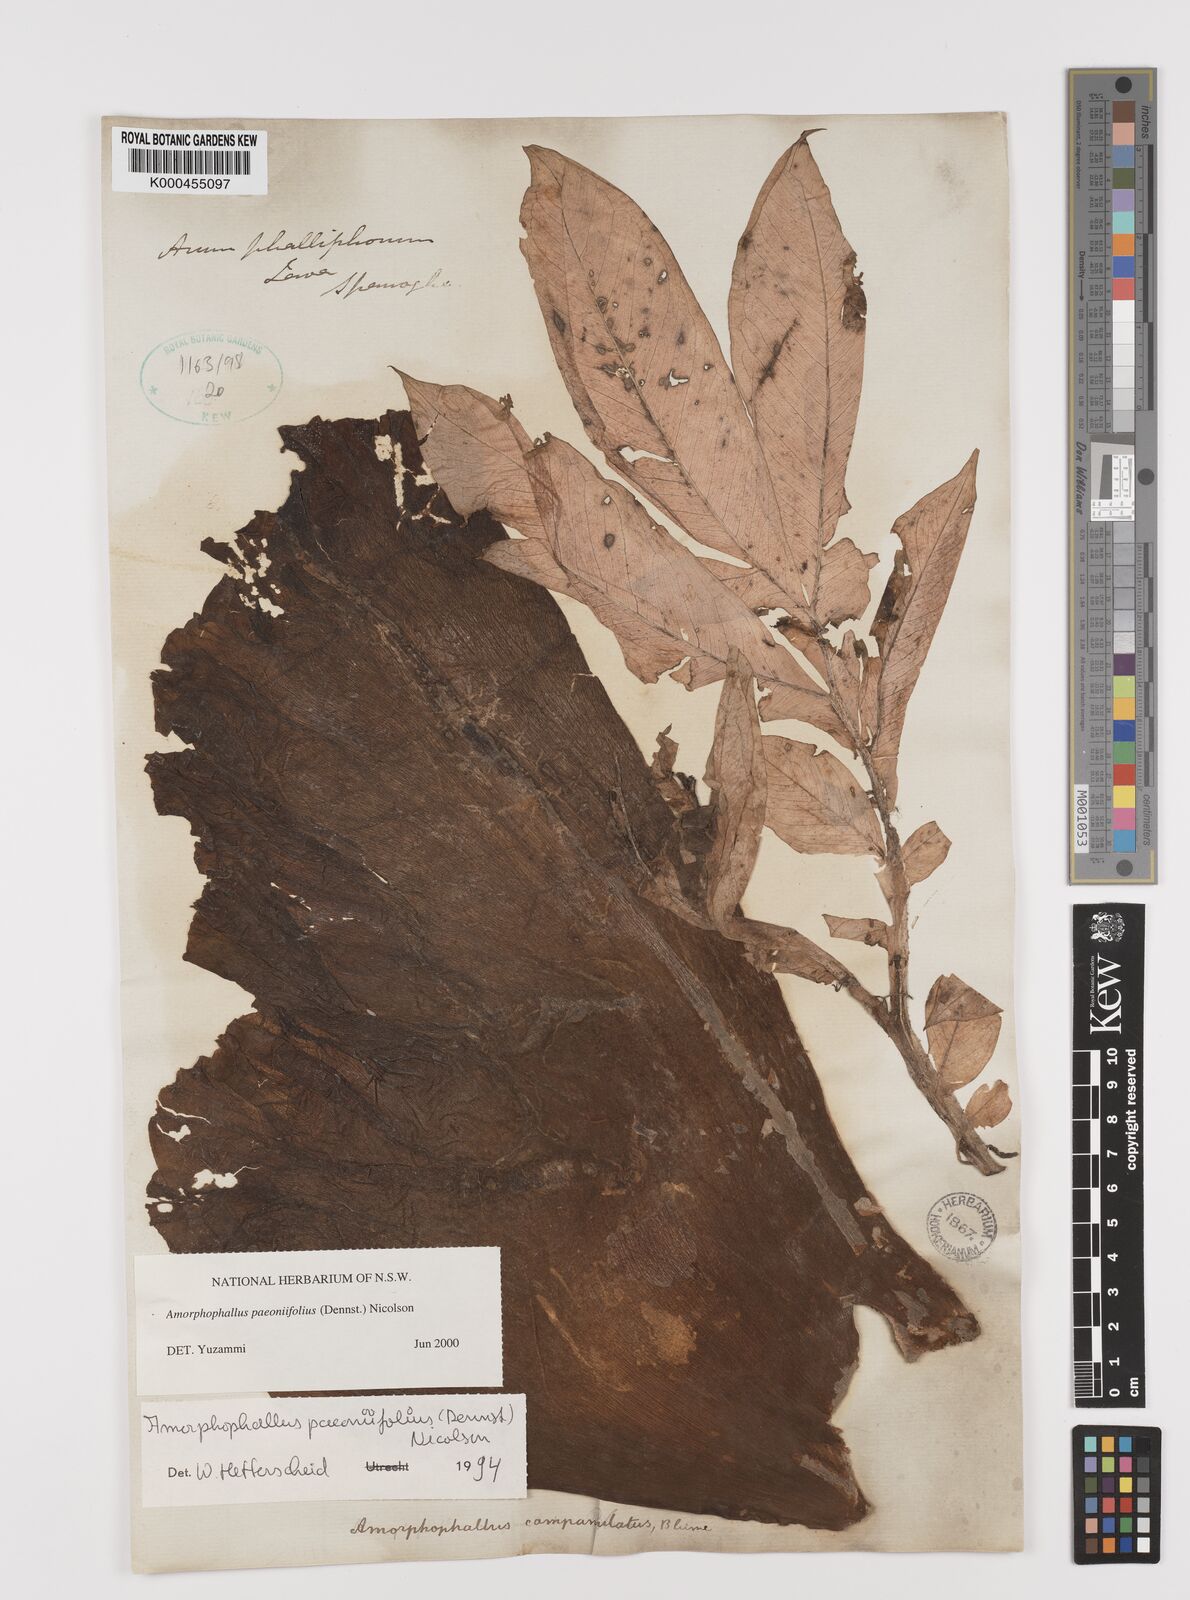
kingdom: Plantae
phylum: Tracheophyta
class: Liliopsida
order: Alismatales
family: Araceae
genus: Amorphophallus
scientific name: Amorphophallus paeoniifolius
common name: Telinga-potato
